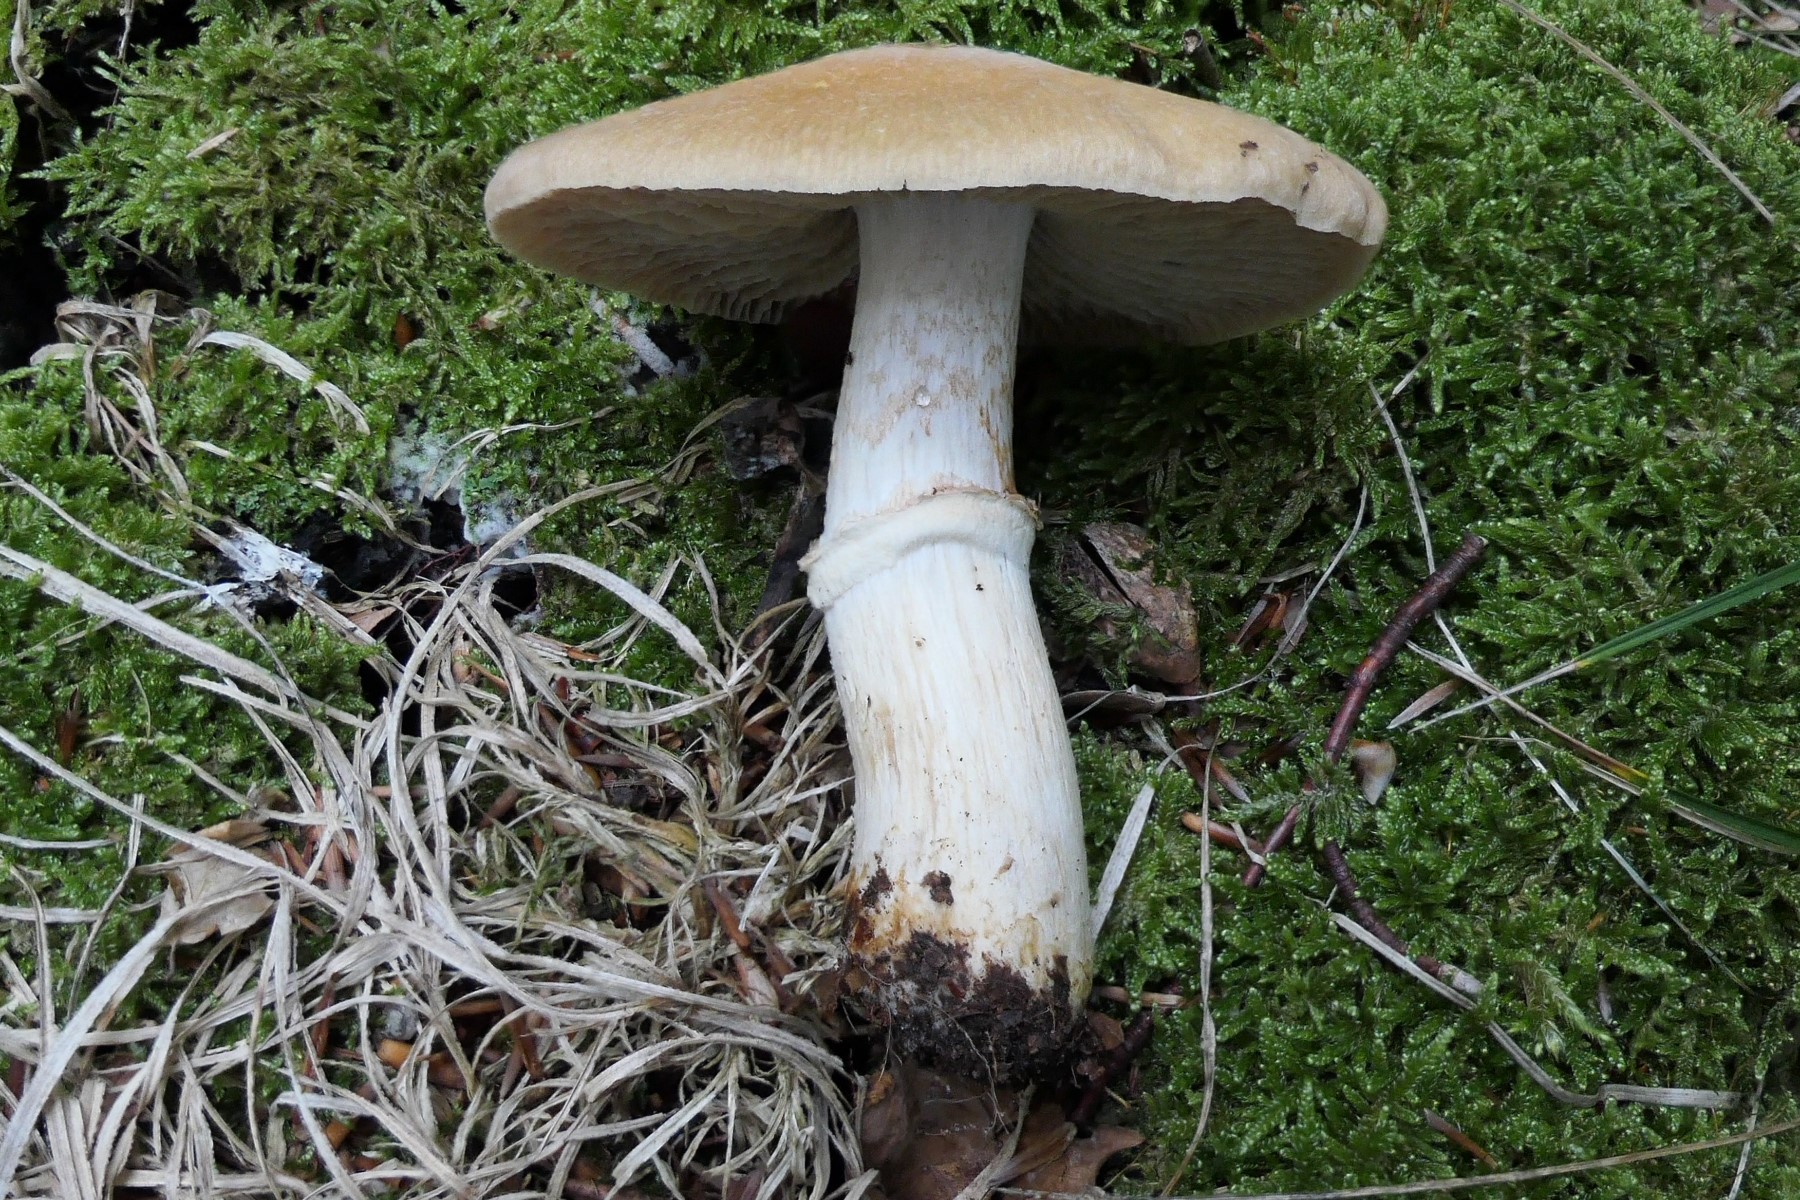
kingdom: Fungi
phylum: Basidiomycota
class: Agaricomycetes
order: Agaricales
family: Cortinariaceae
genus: Cortinarius
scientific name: Cortinarius caperatus
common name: klidhat
